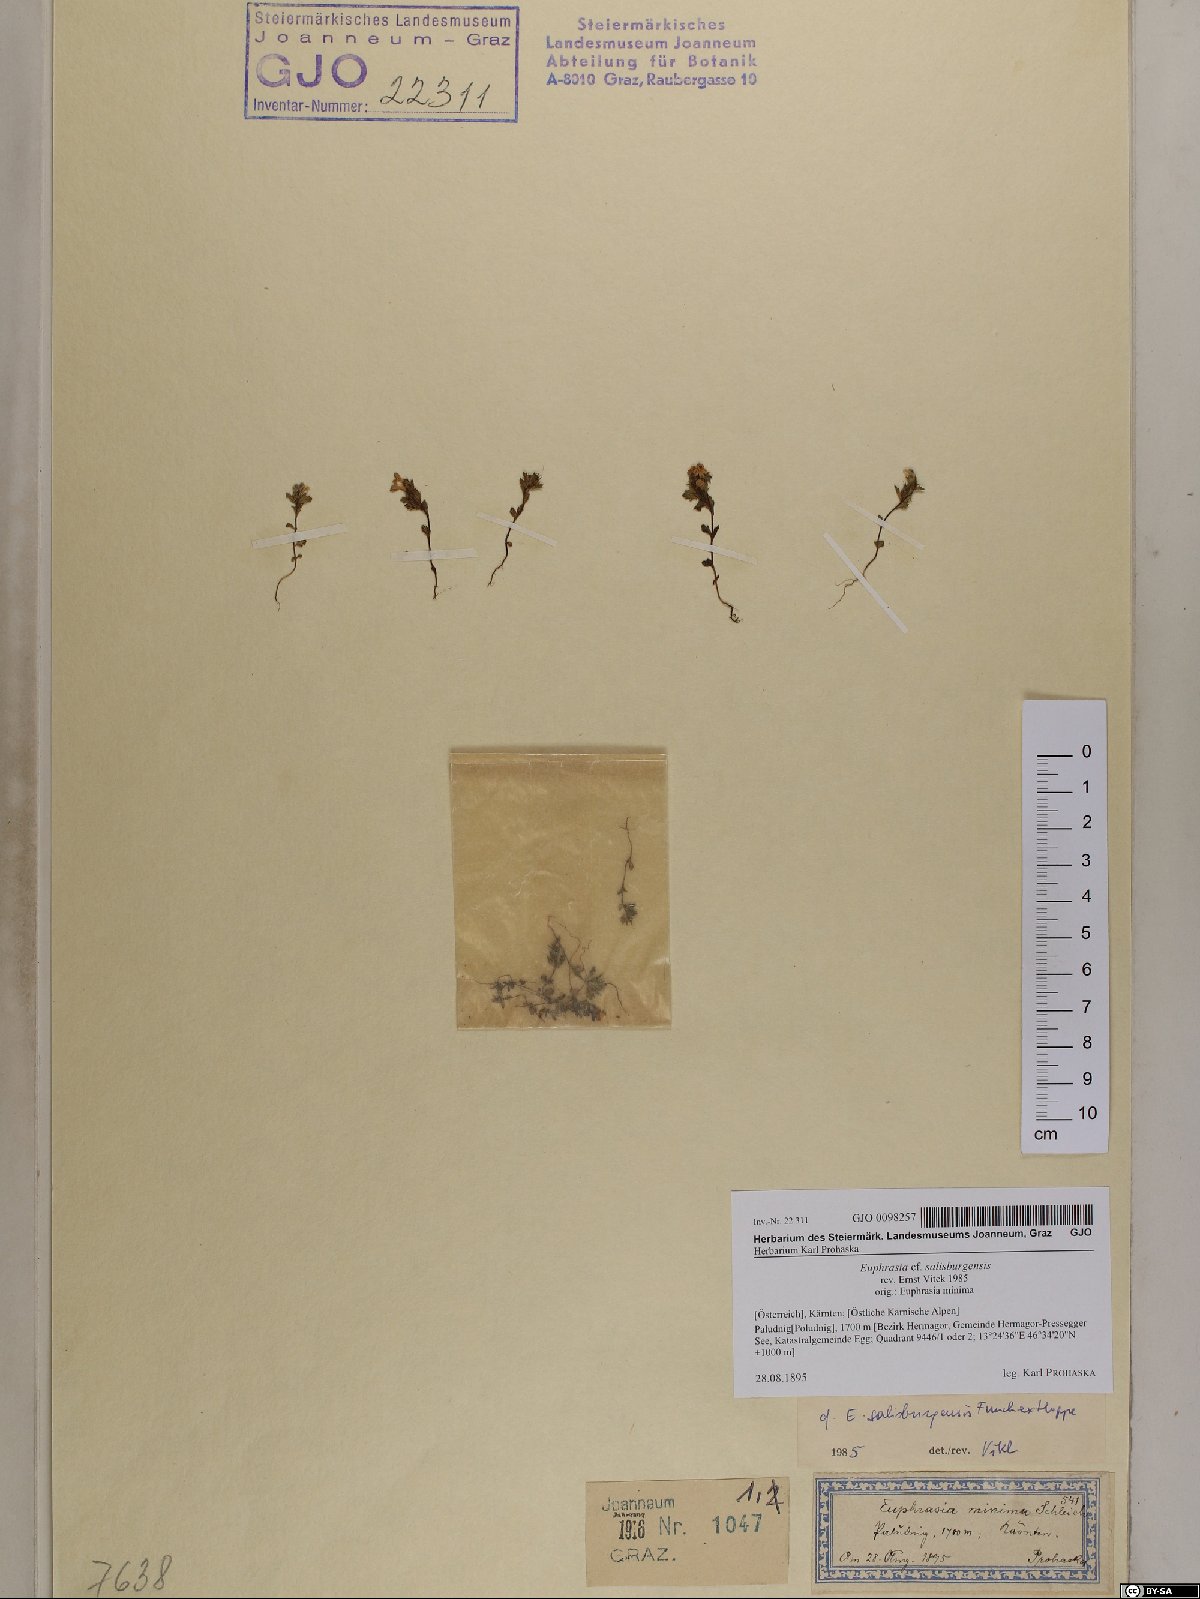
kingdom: Plantae
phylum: Tracheophyta
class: Magnoliopsida
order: Lamiales
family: Orobanchaceae
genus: Euphrasia
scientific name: Euphrasia salisburgensis
